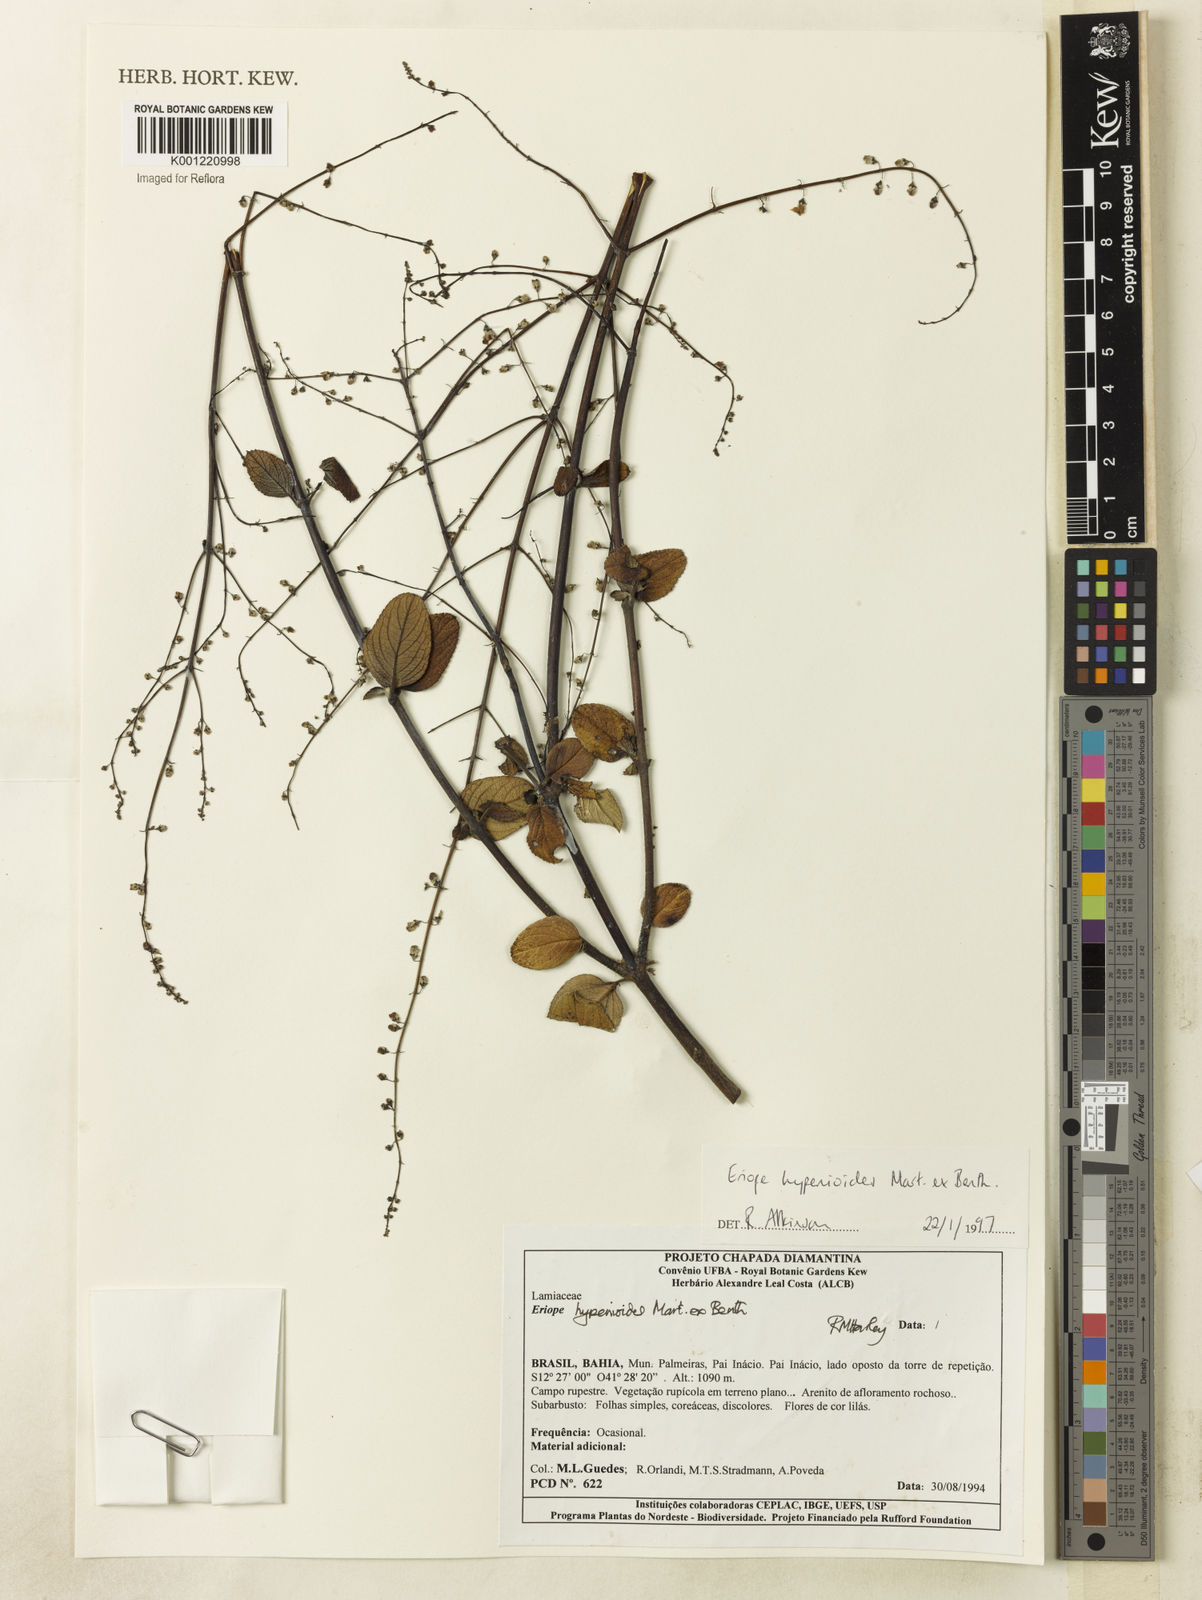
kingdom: Plantae
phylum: Tracheophyta
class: Magnoliopsida
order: Lamiales
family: Lamiaceae
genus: Eriope
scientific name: Eriope hypenioides
